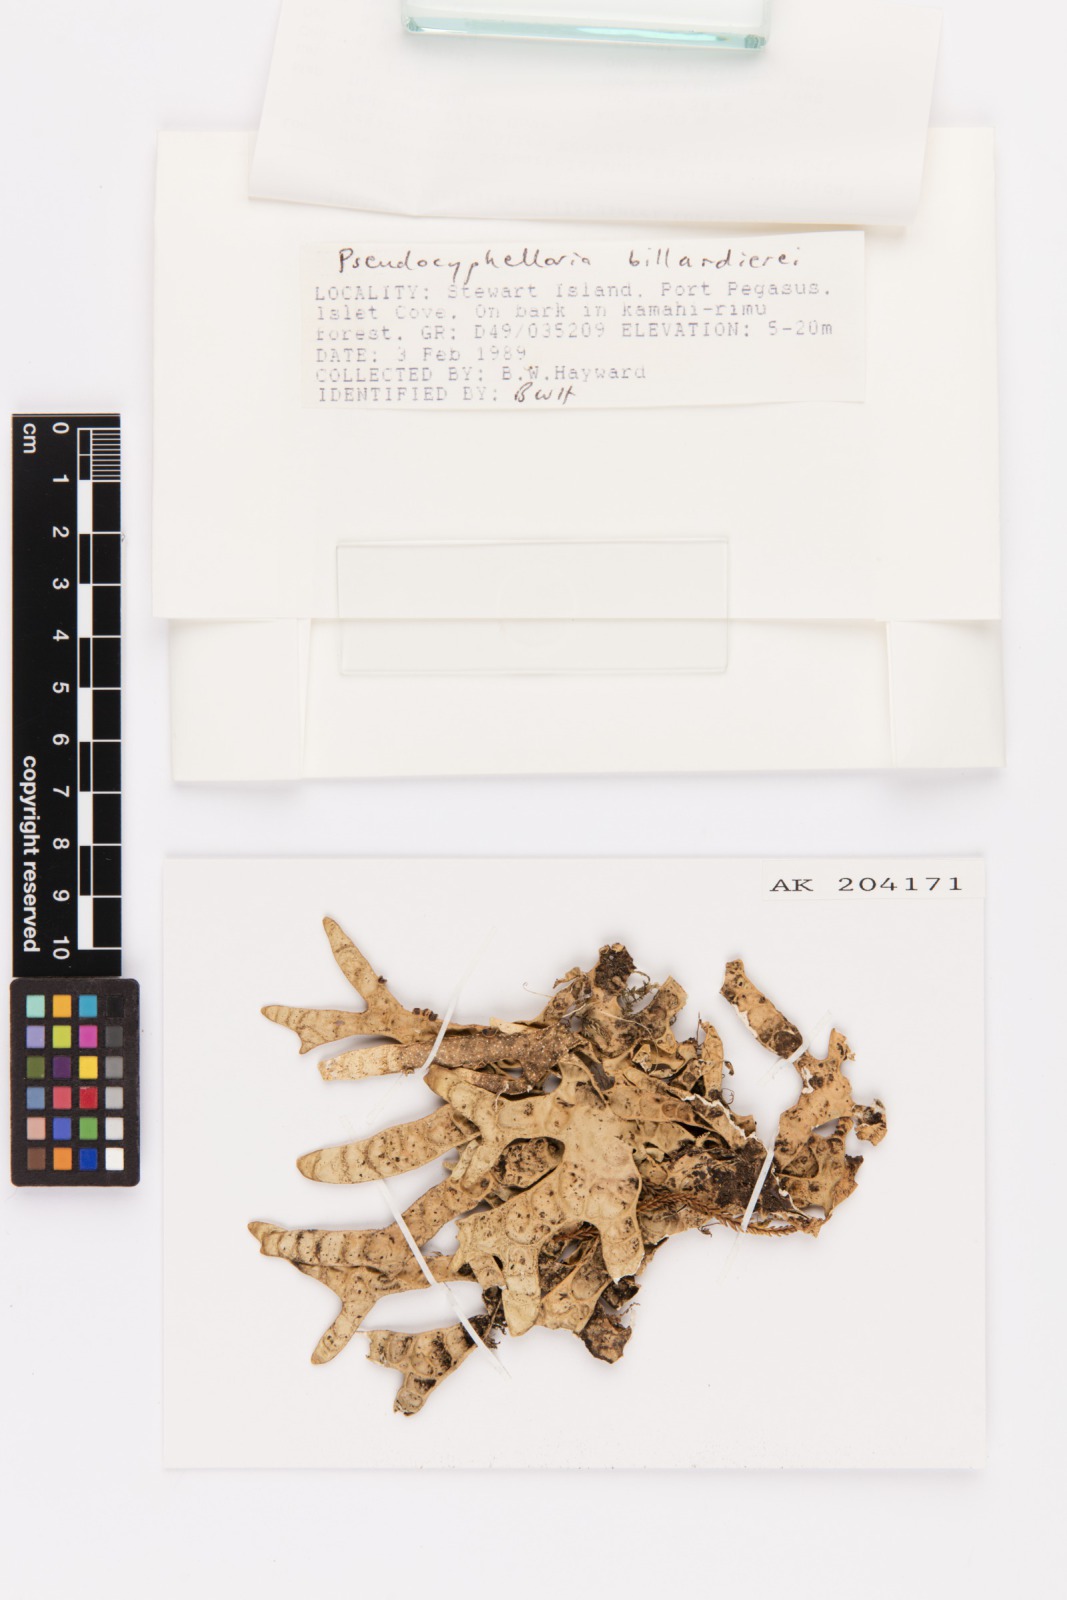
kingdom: Fungi
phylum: Ascomycota
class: Lecanoromycetes
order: Peltigerales
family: Lobariaceae
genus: Pseudocyphellaria
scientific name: Pseudocyphellaria billardierei
